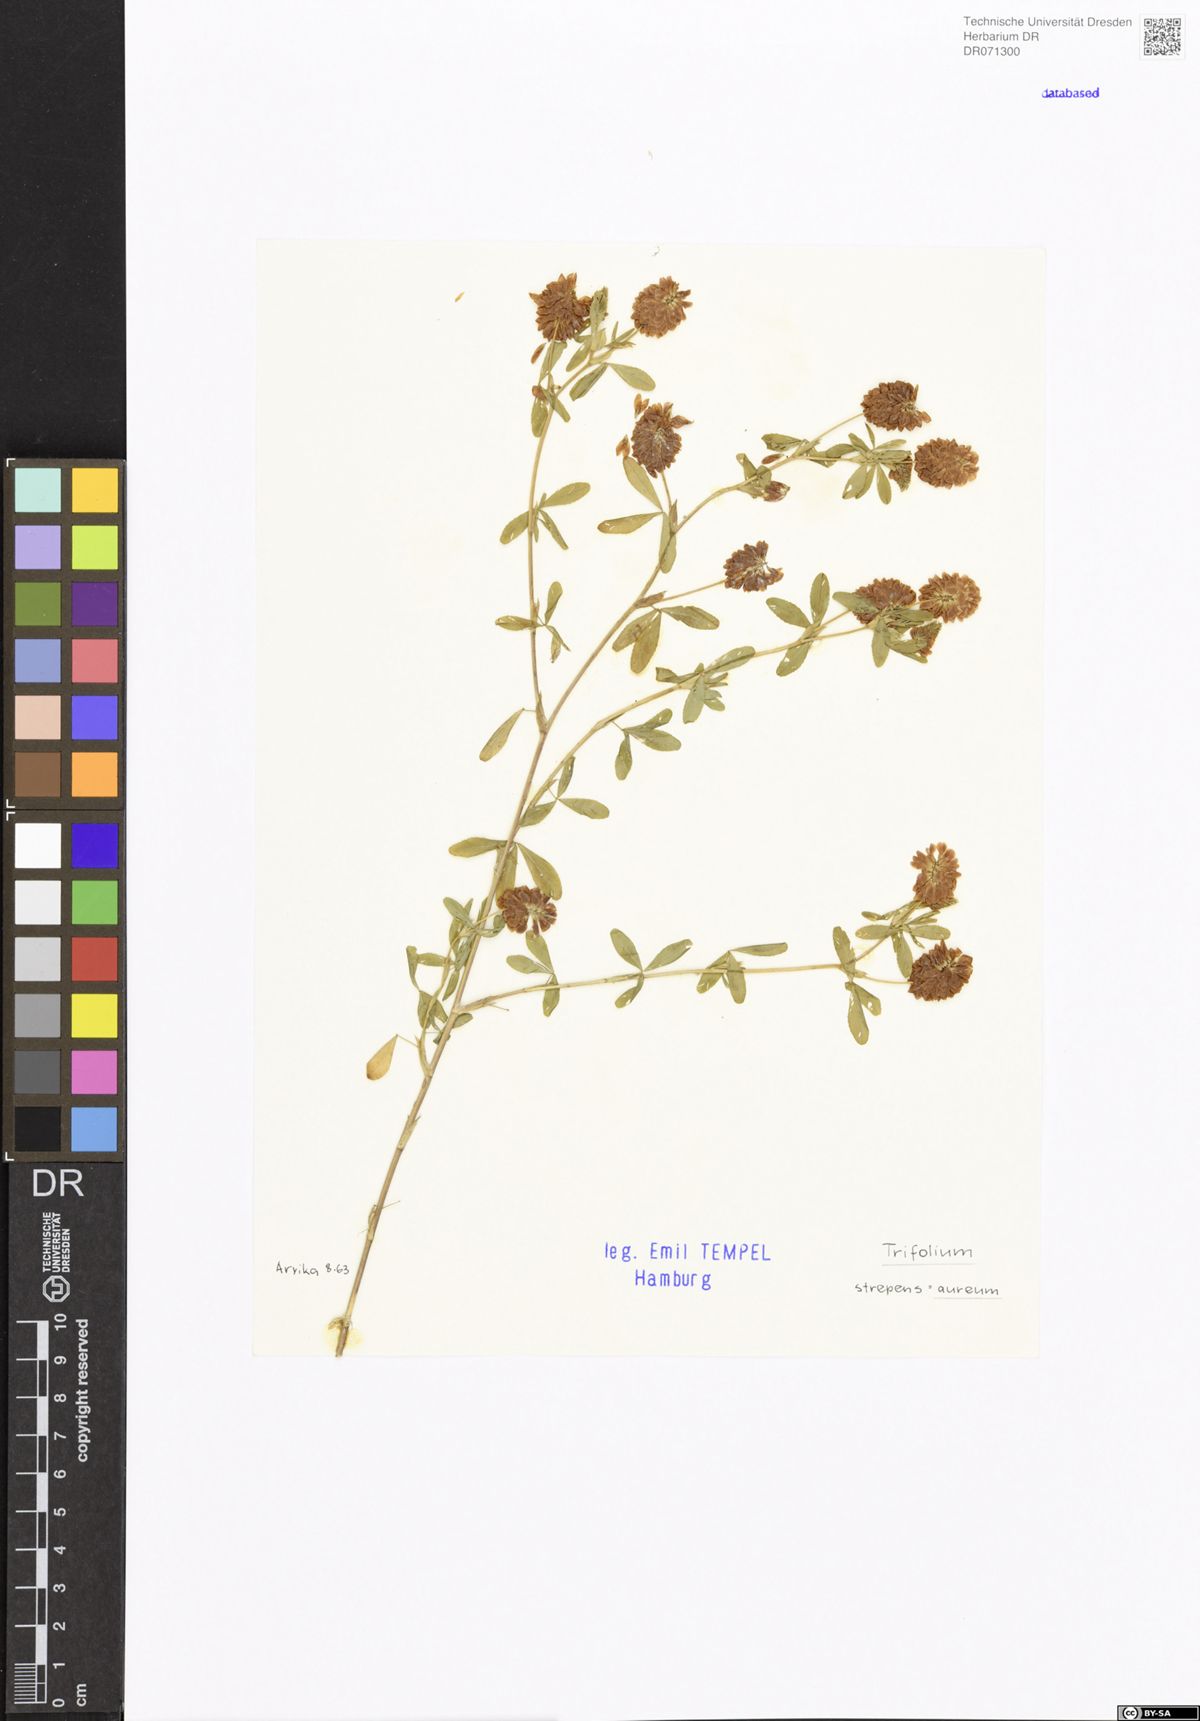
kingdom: Plantae
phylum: Tracheophyta
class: Magnoliopsida
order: Fabales
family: Fabaceae
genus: Trifolium
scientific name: Trifolium aureum
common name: Golden clover
